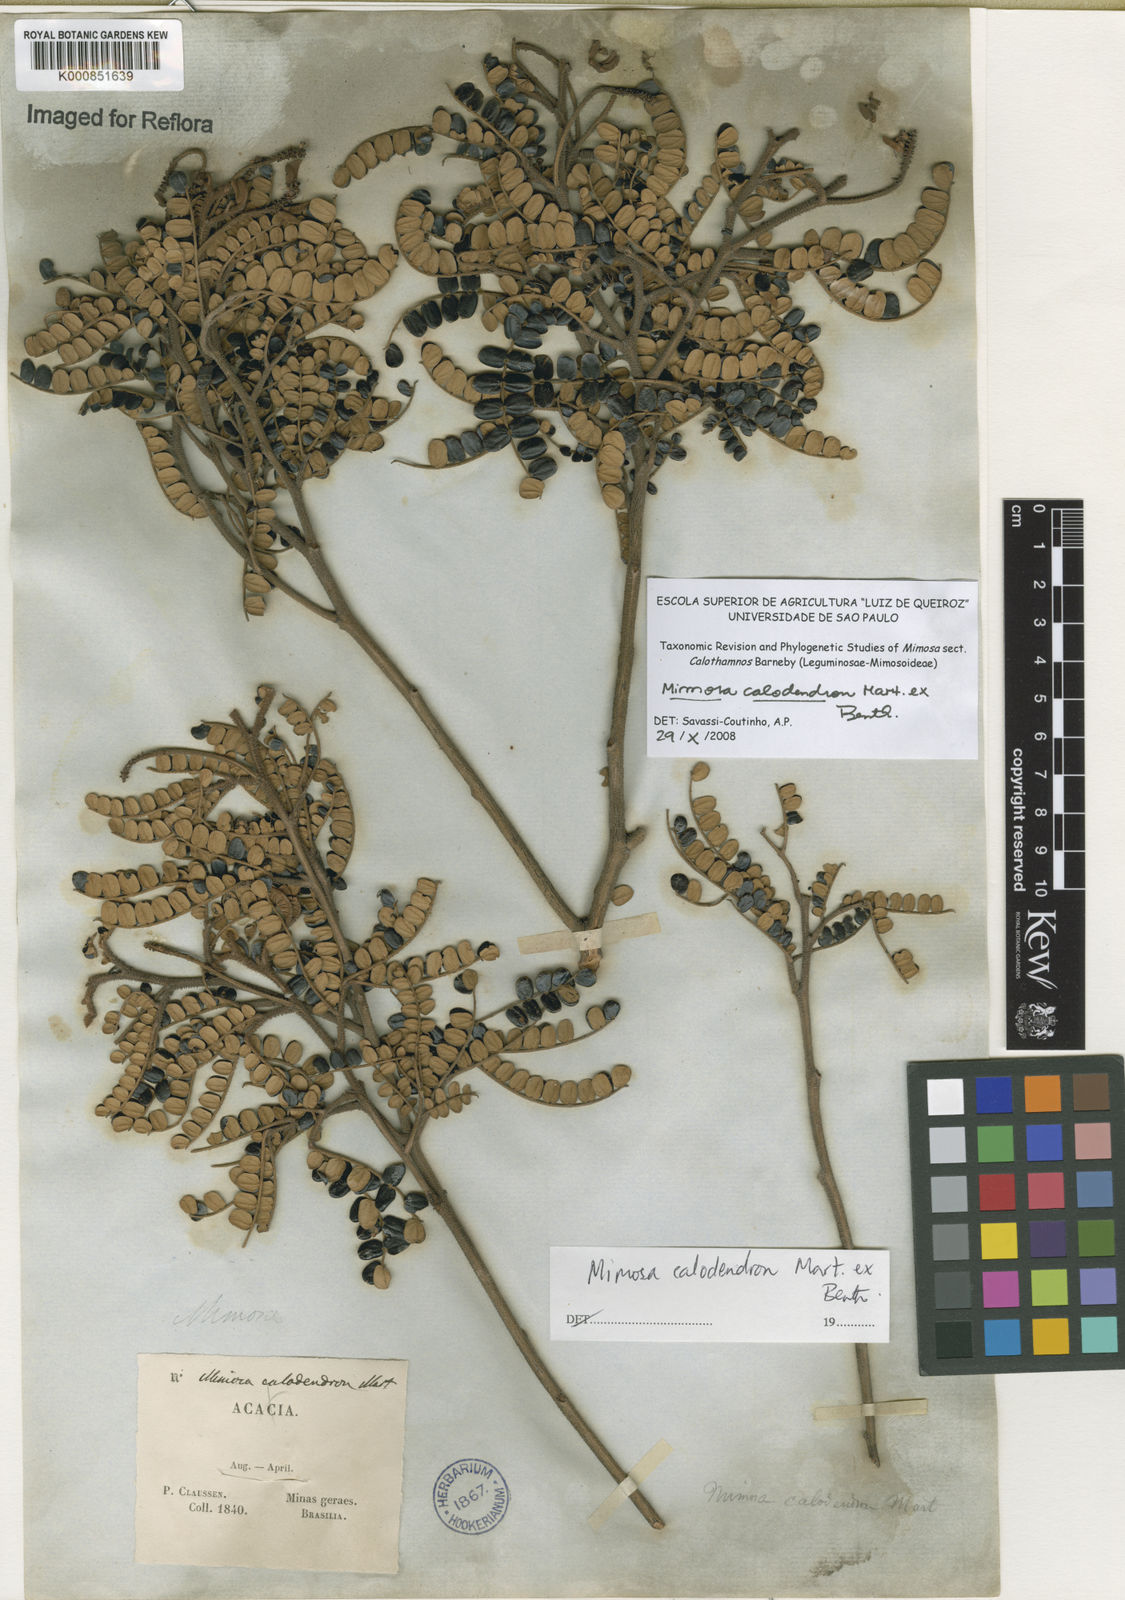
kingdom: Plantae
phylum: Tracheophyta
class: Magnoliopsida
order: Fabales
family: Fabaceae
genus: Mimosa
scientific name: Mimosa calodendron
